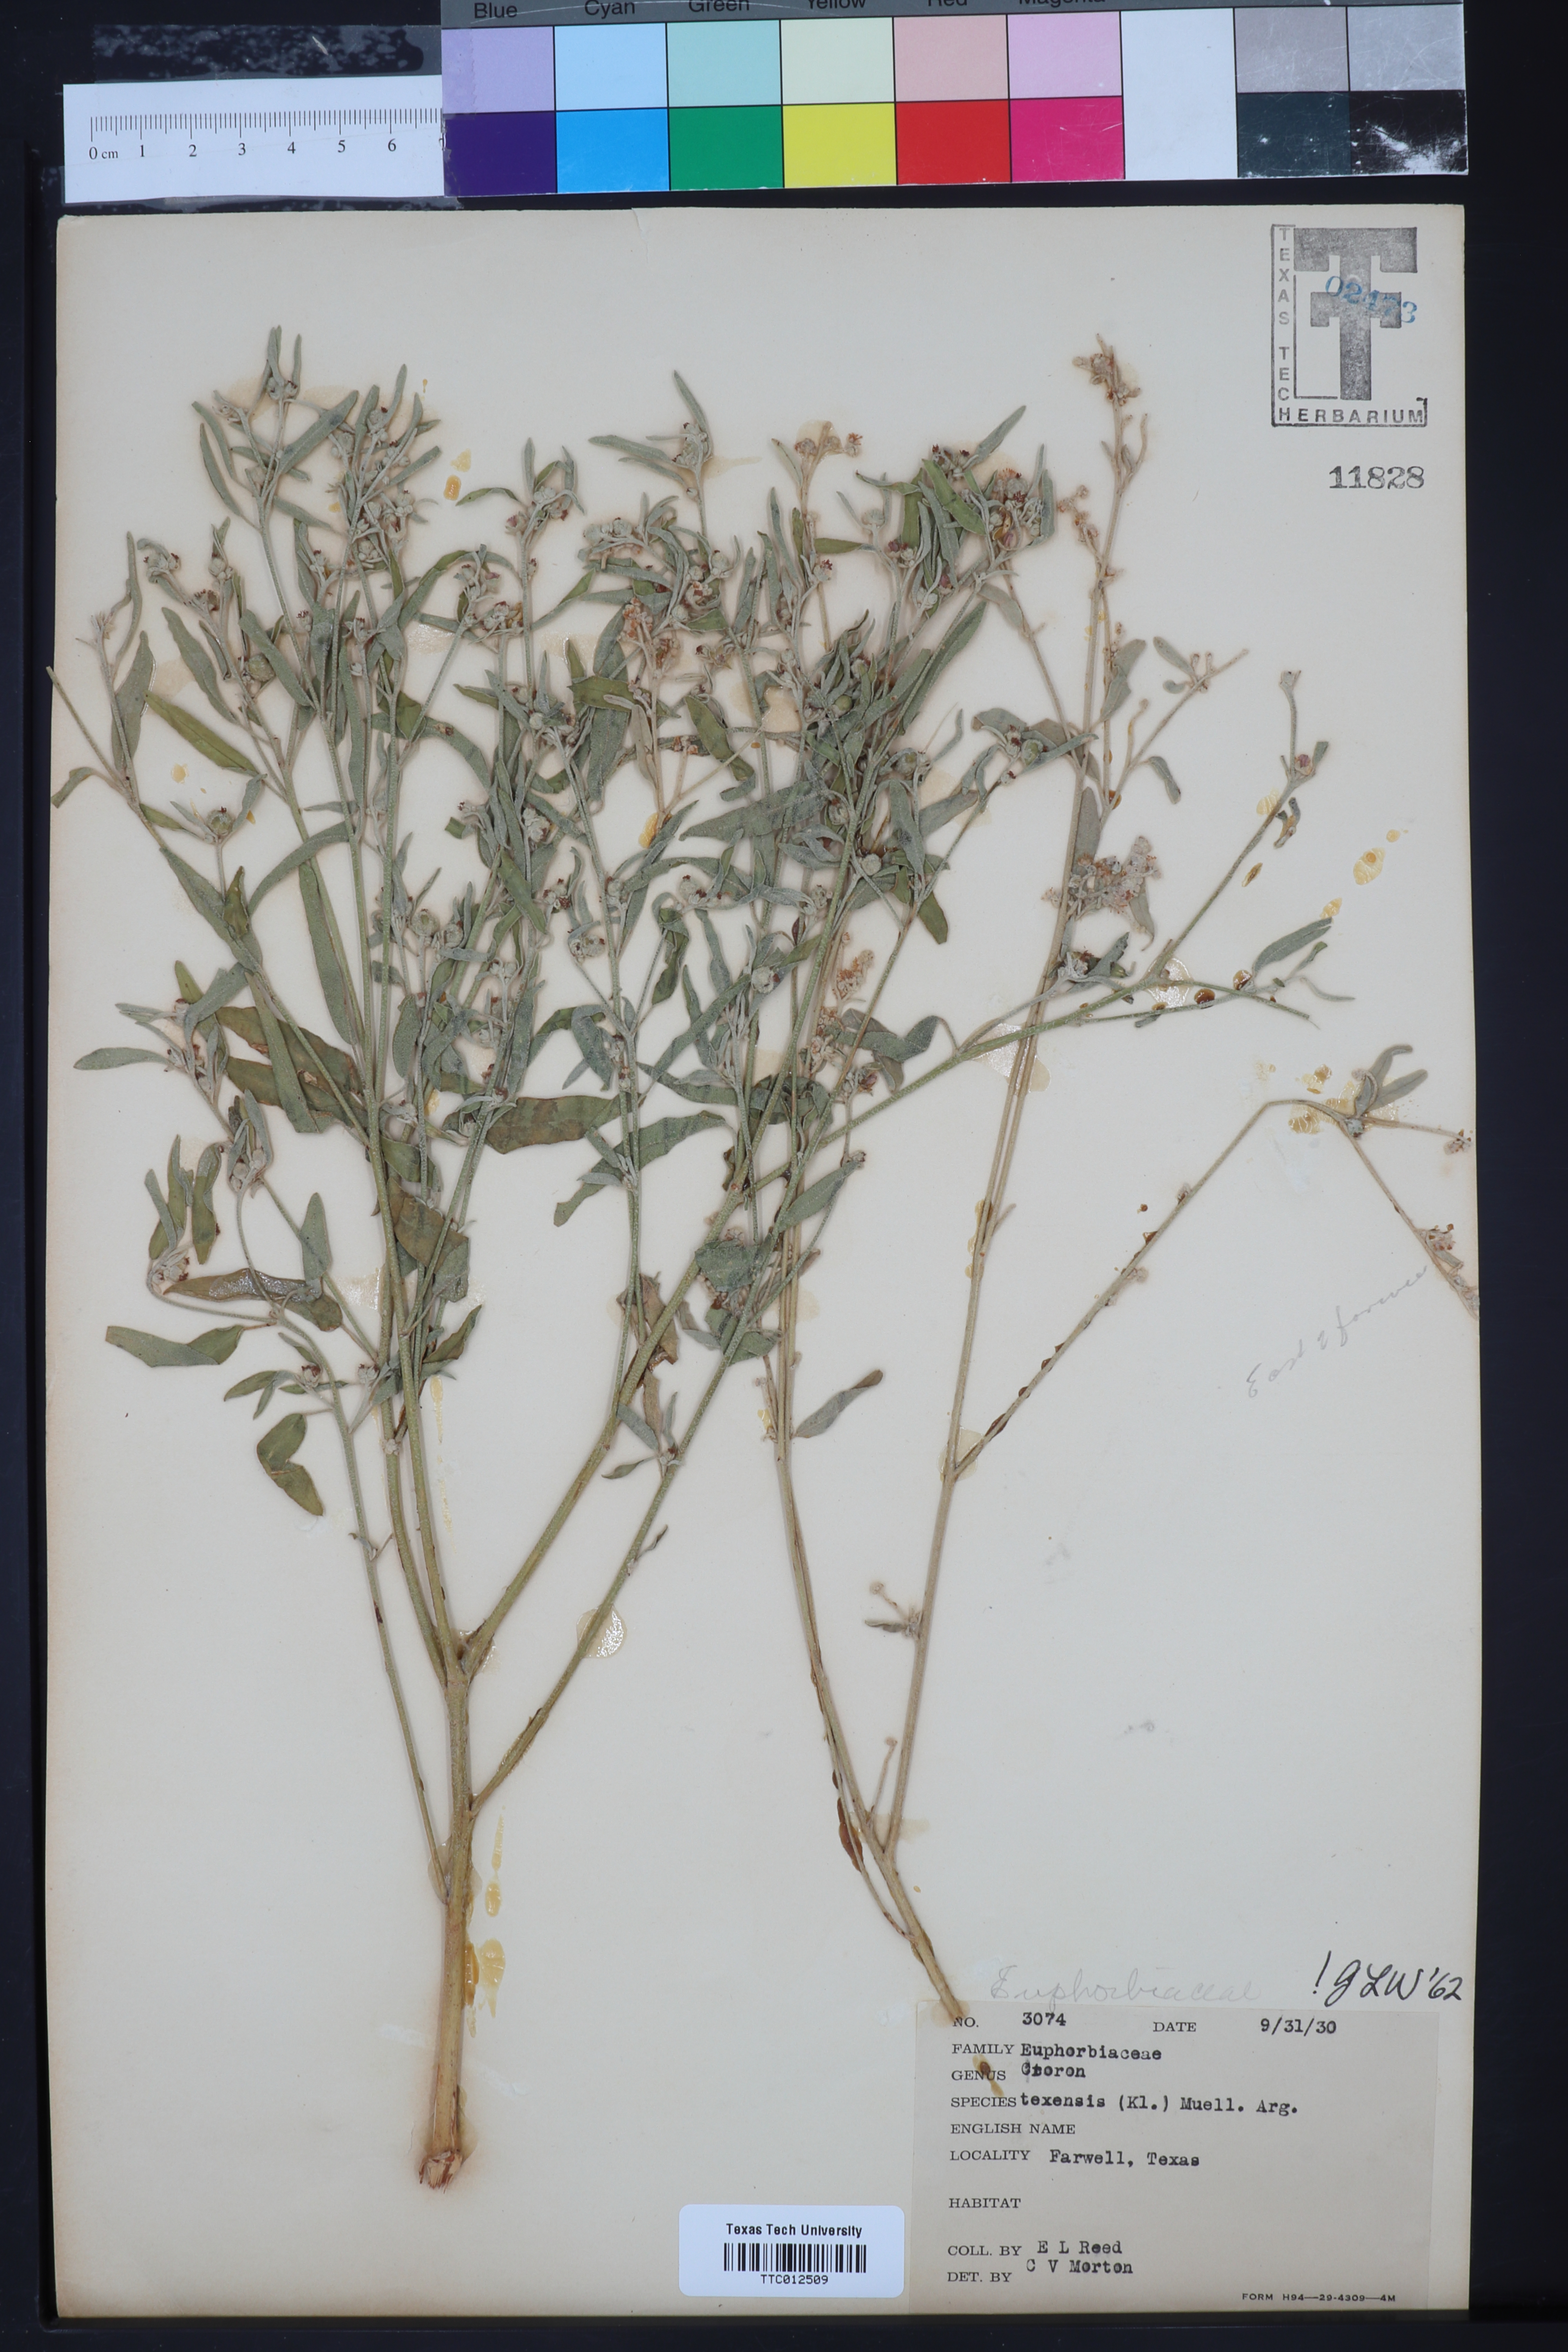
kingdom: Plantae
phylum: Tracheophyta
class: Magnoliopsida
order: Malpighiales
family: Euphorbiaceae
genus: Croton
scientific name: Croton texensis
